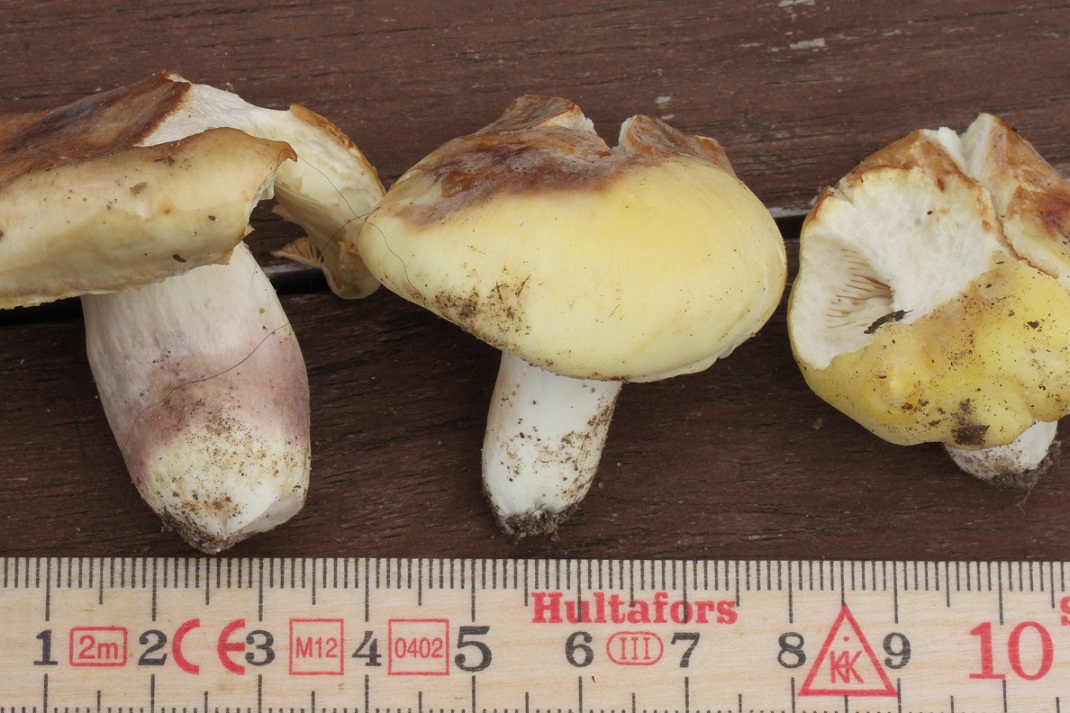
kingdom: Fungi
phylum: Basidiomycota
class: Agaricomycetes
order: Russulales
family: Russulaceae
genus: Russula
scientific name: Russula violeipes
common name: ferskengul skørhat
